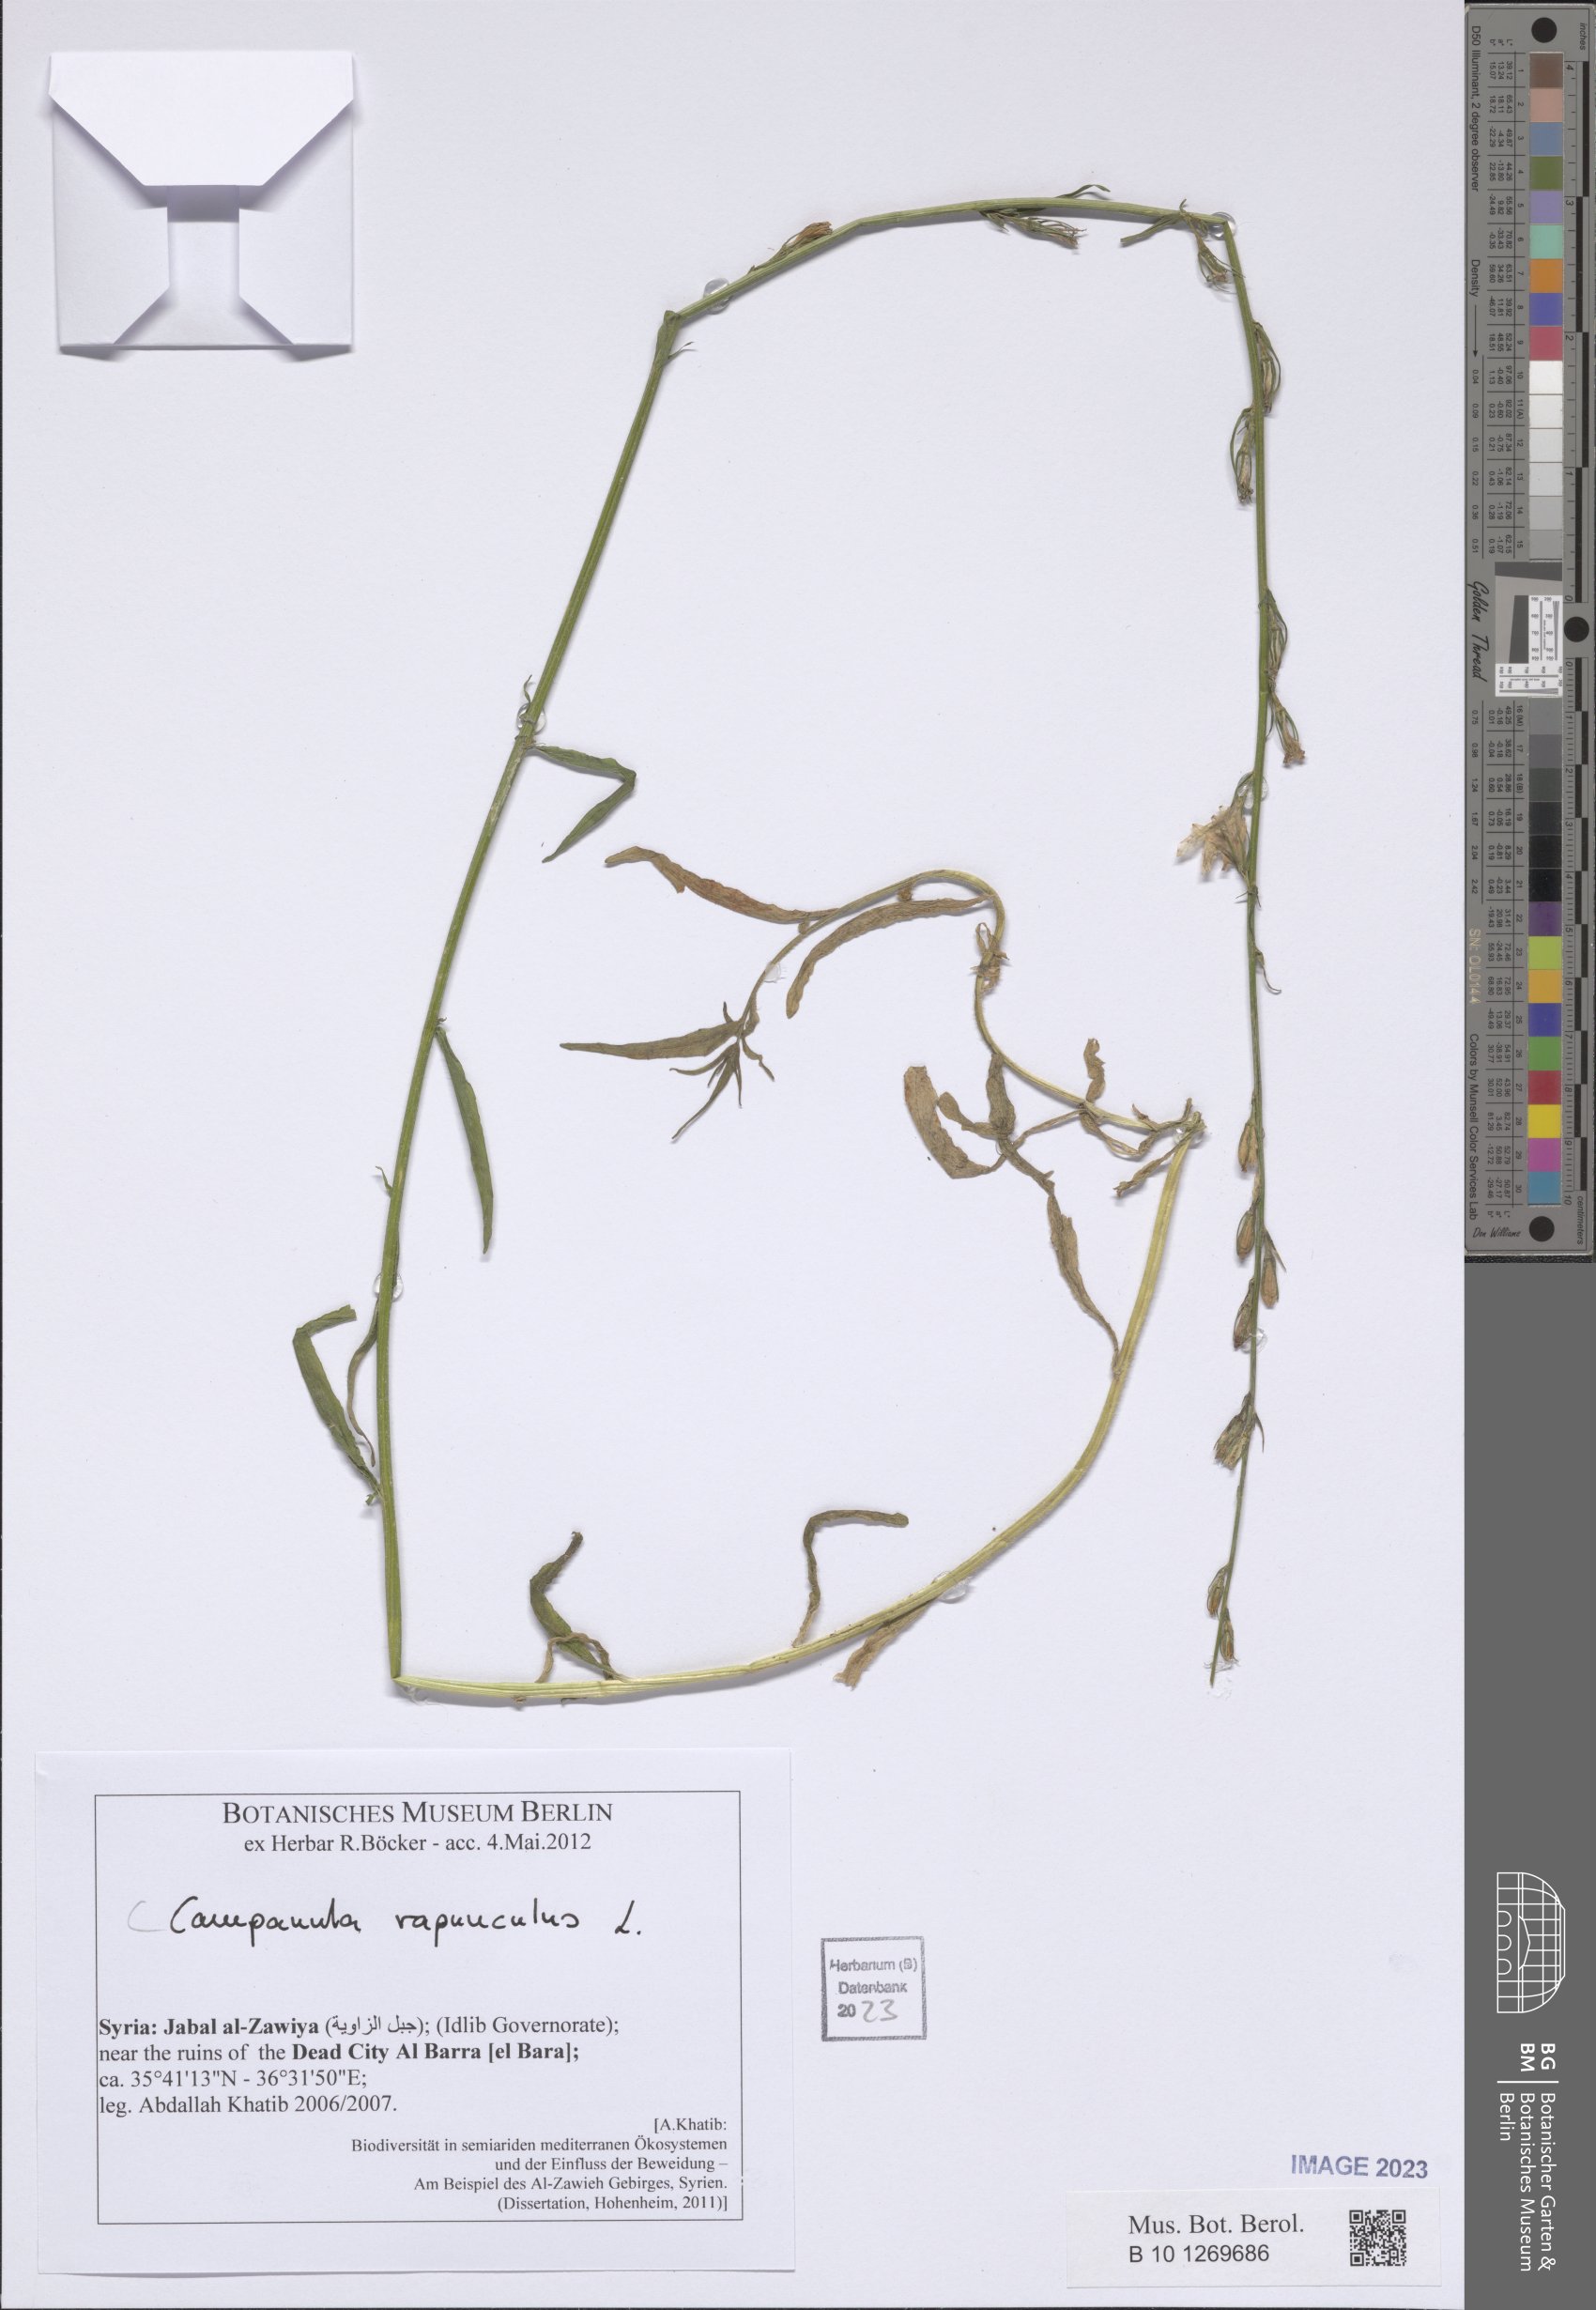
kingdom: Plantae
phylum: Tracheophyta
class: Magnoliopsida
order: Asterales
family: Campanulaceae
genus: Campanula
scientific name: Campanula rapunculus
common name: Rampion bellflower
